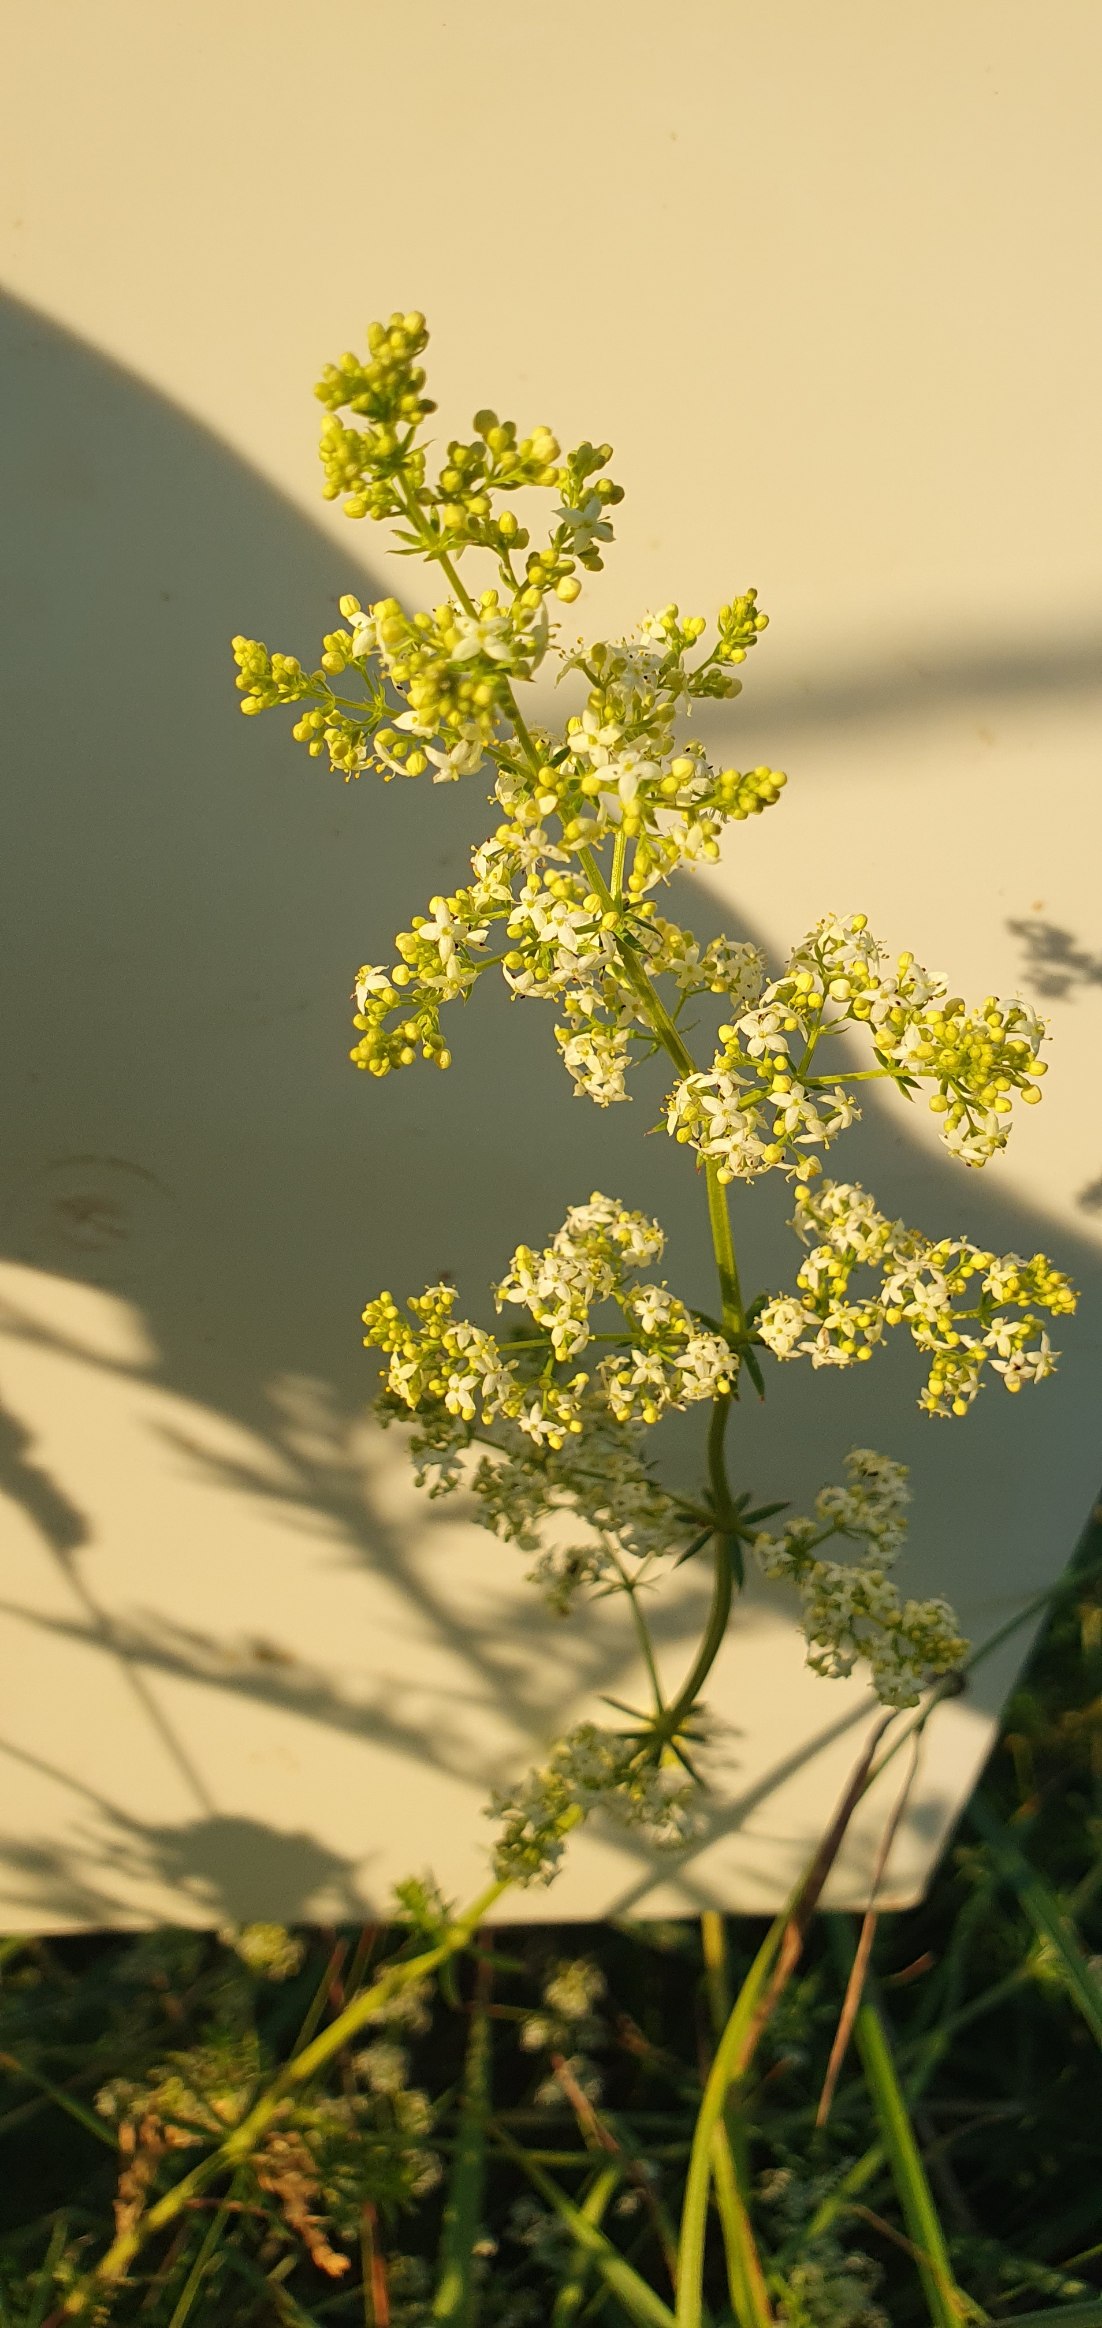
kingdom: Plantae
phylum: Tracheophyta
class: Magnoliopsida
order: Gentianales
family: Rubiaceae
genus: Galium
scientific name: Galium mollugo
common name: Hvid snerre
